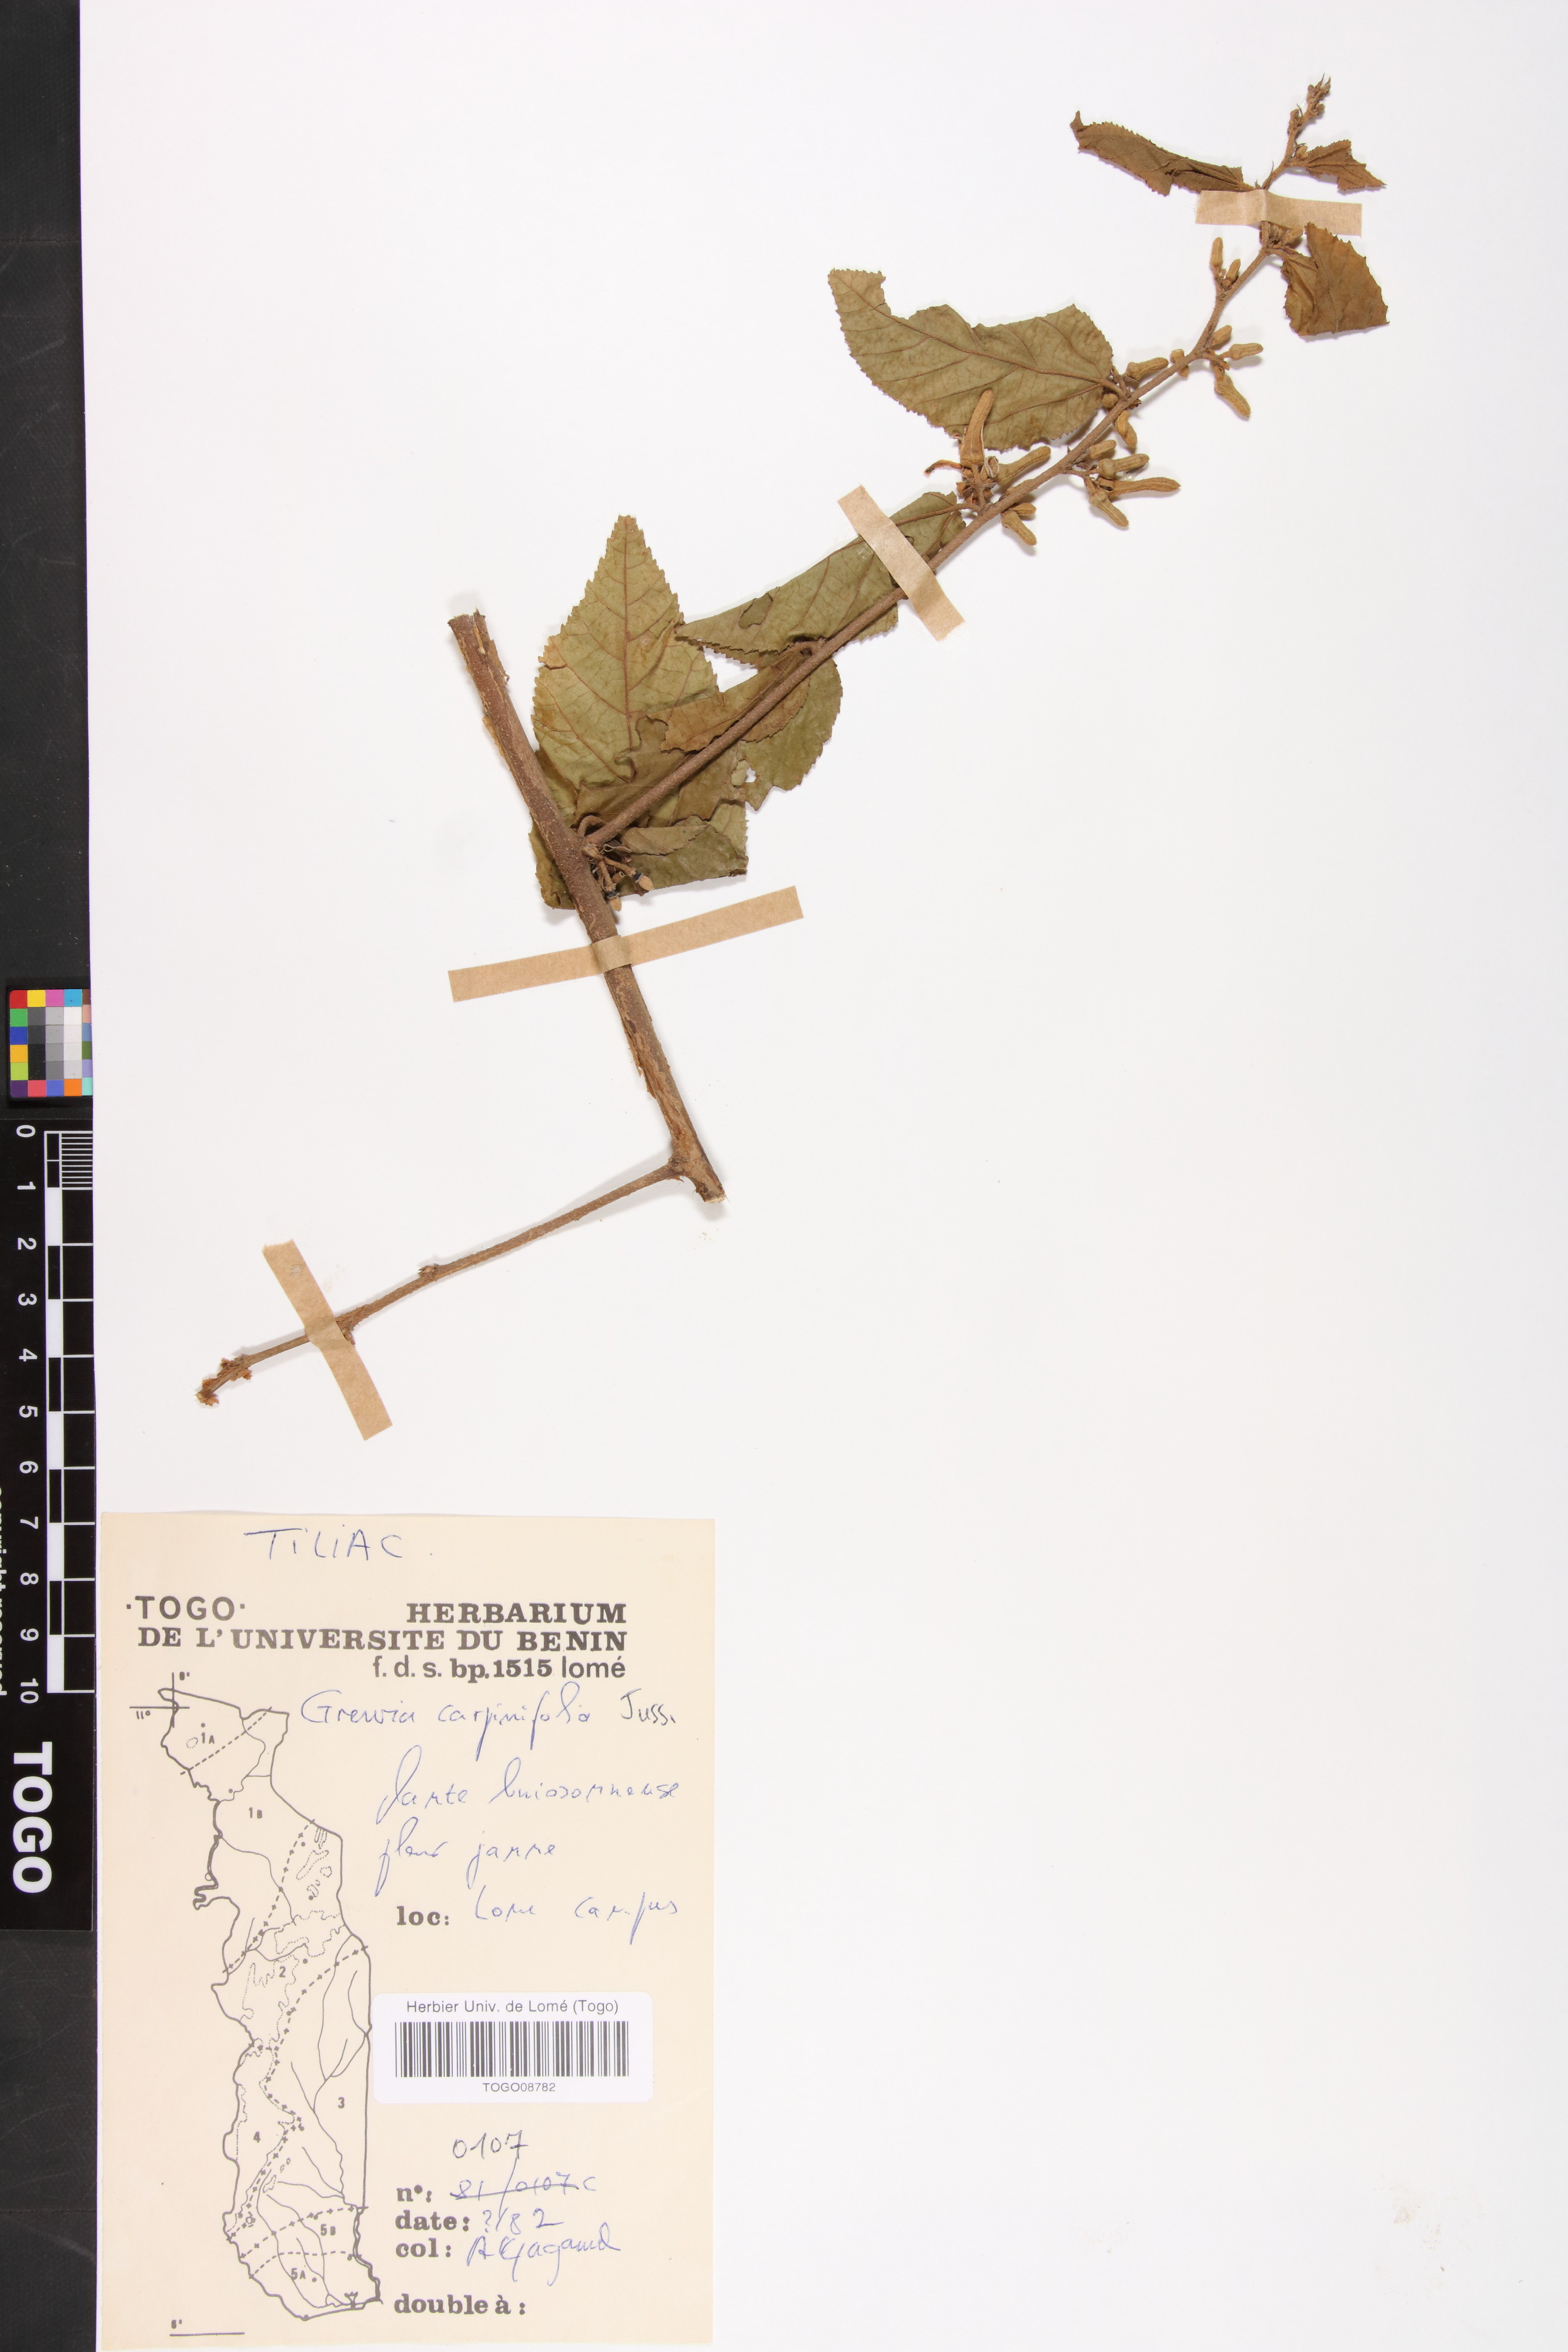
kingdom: Plantae
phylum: Tracheophyta
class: Magnoliopsida
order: Malvales
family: Malvaceae
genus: Grewia
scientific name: Grewia carpinifolia
